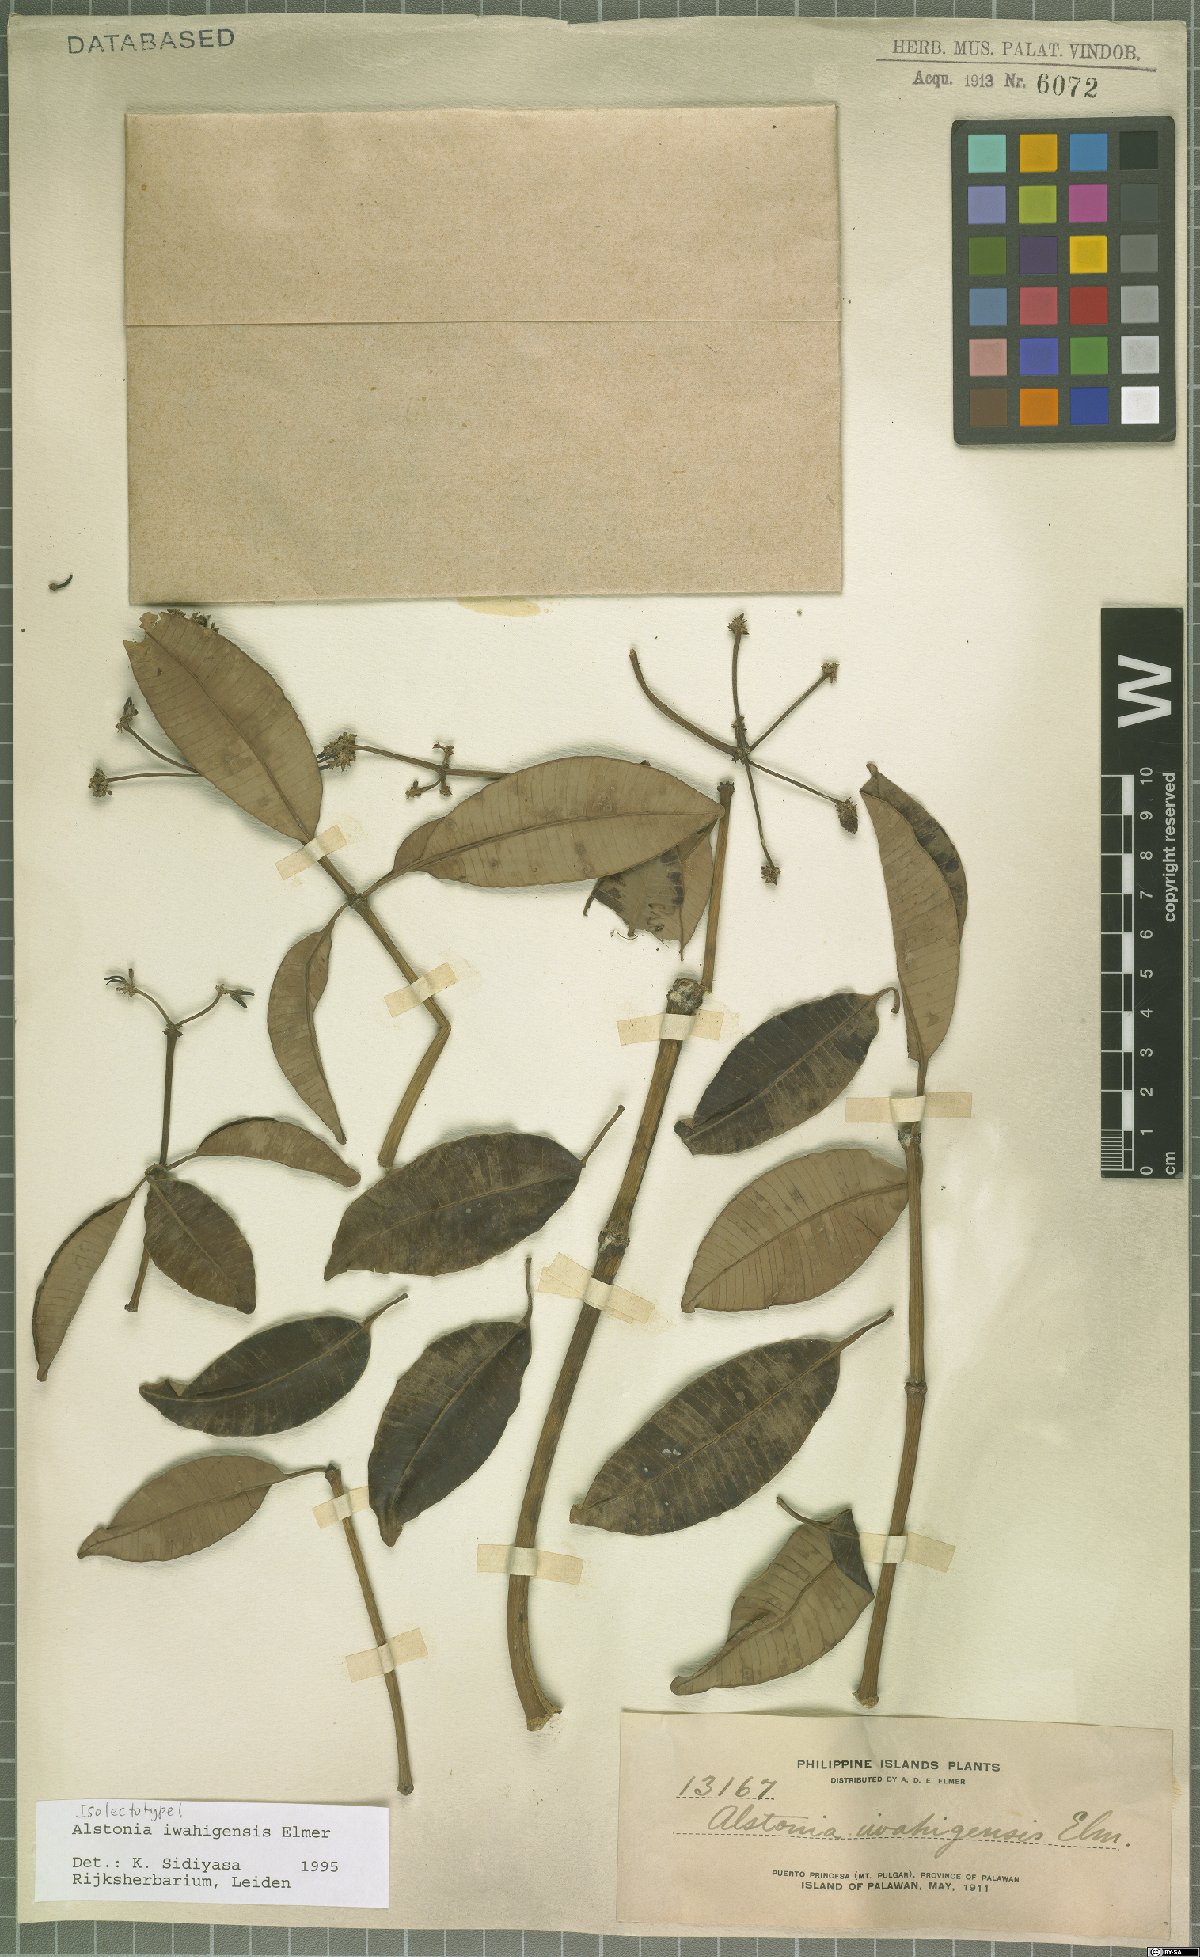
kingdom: Plantae
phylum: Tracheophyta
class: Magnoliopsida
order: Gentianales
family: Apocynaceae
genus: Alstonia
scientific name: Alstonia iwahigensis
